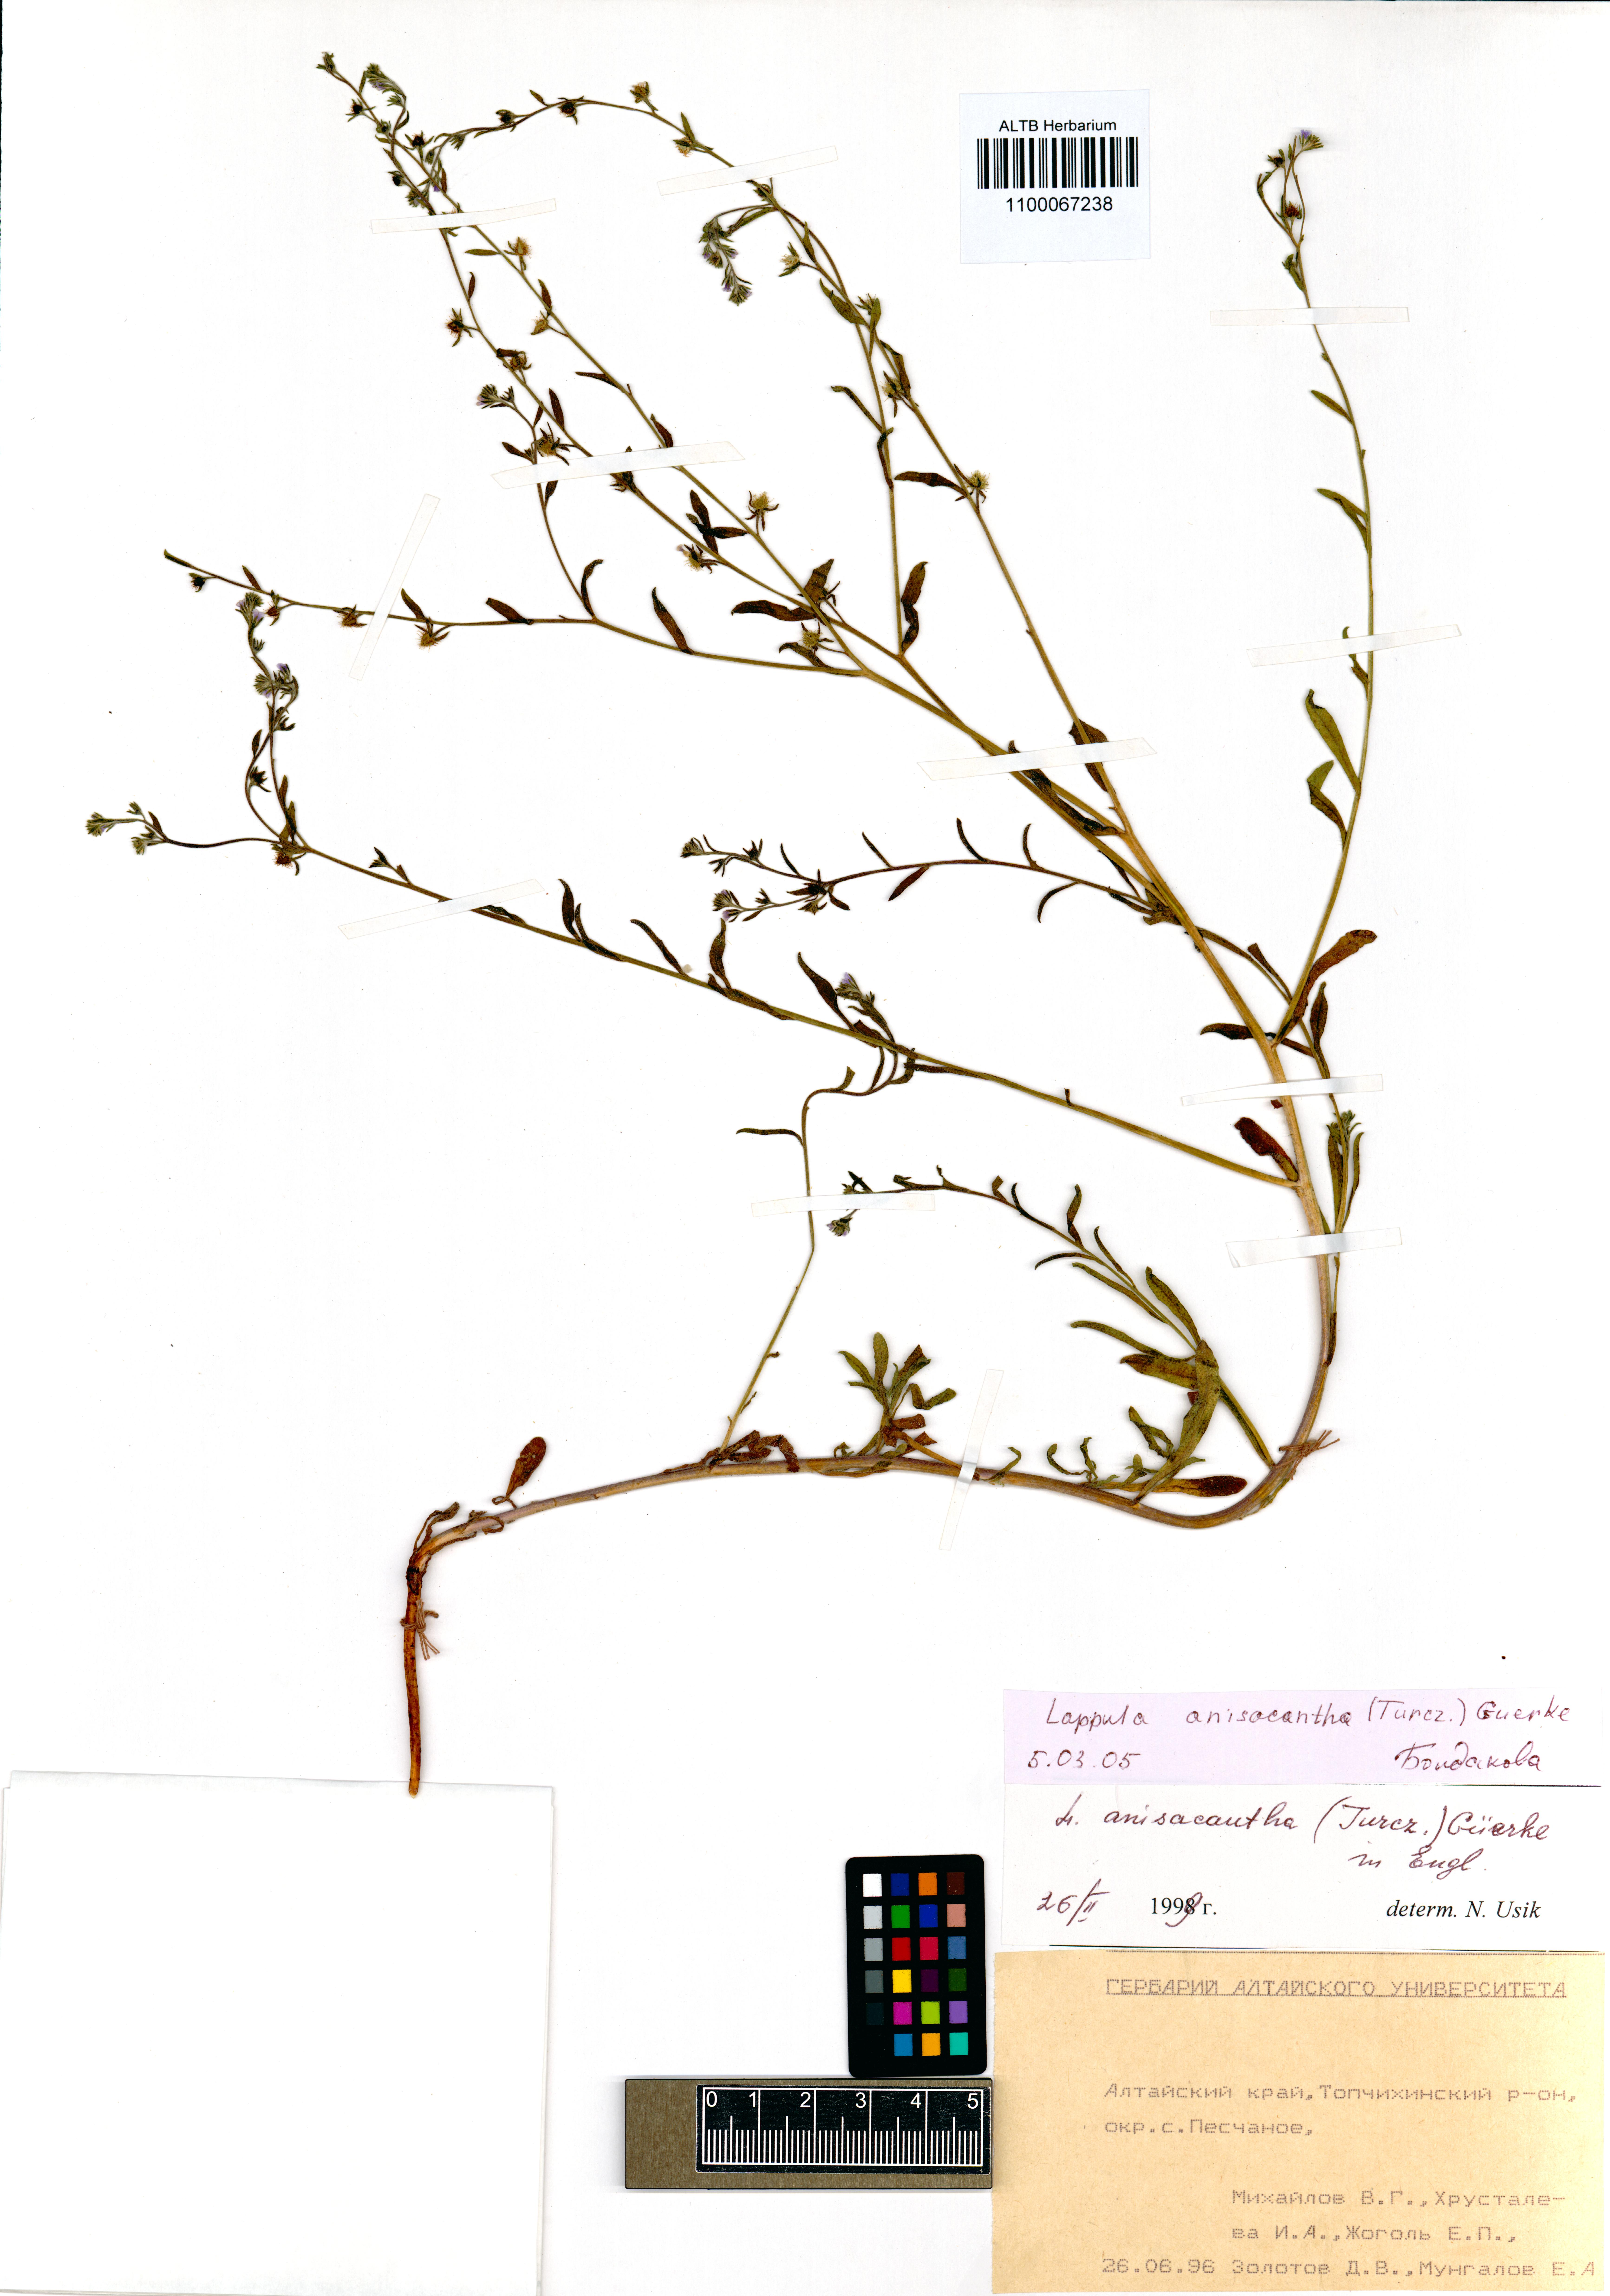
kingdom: Plantae
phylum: Tracheophyta
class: Magnoliopsida
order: Boraginales
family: Boraginaceae
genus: Lappula
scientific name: Lappula intermedia
